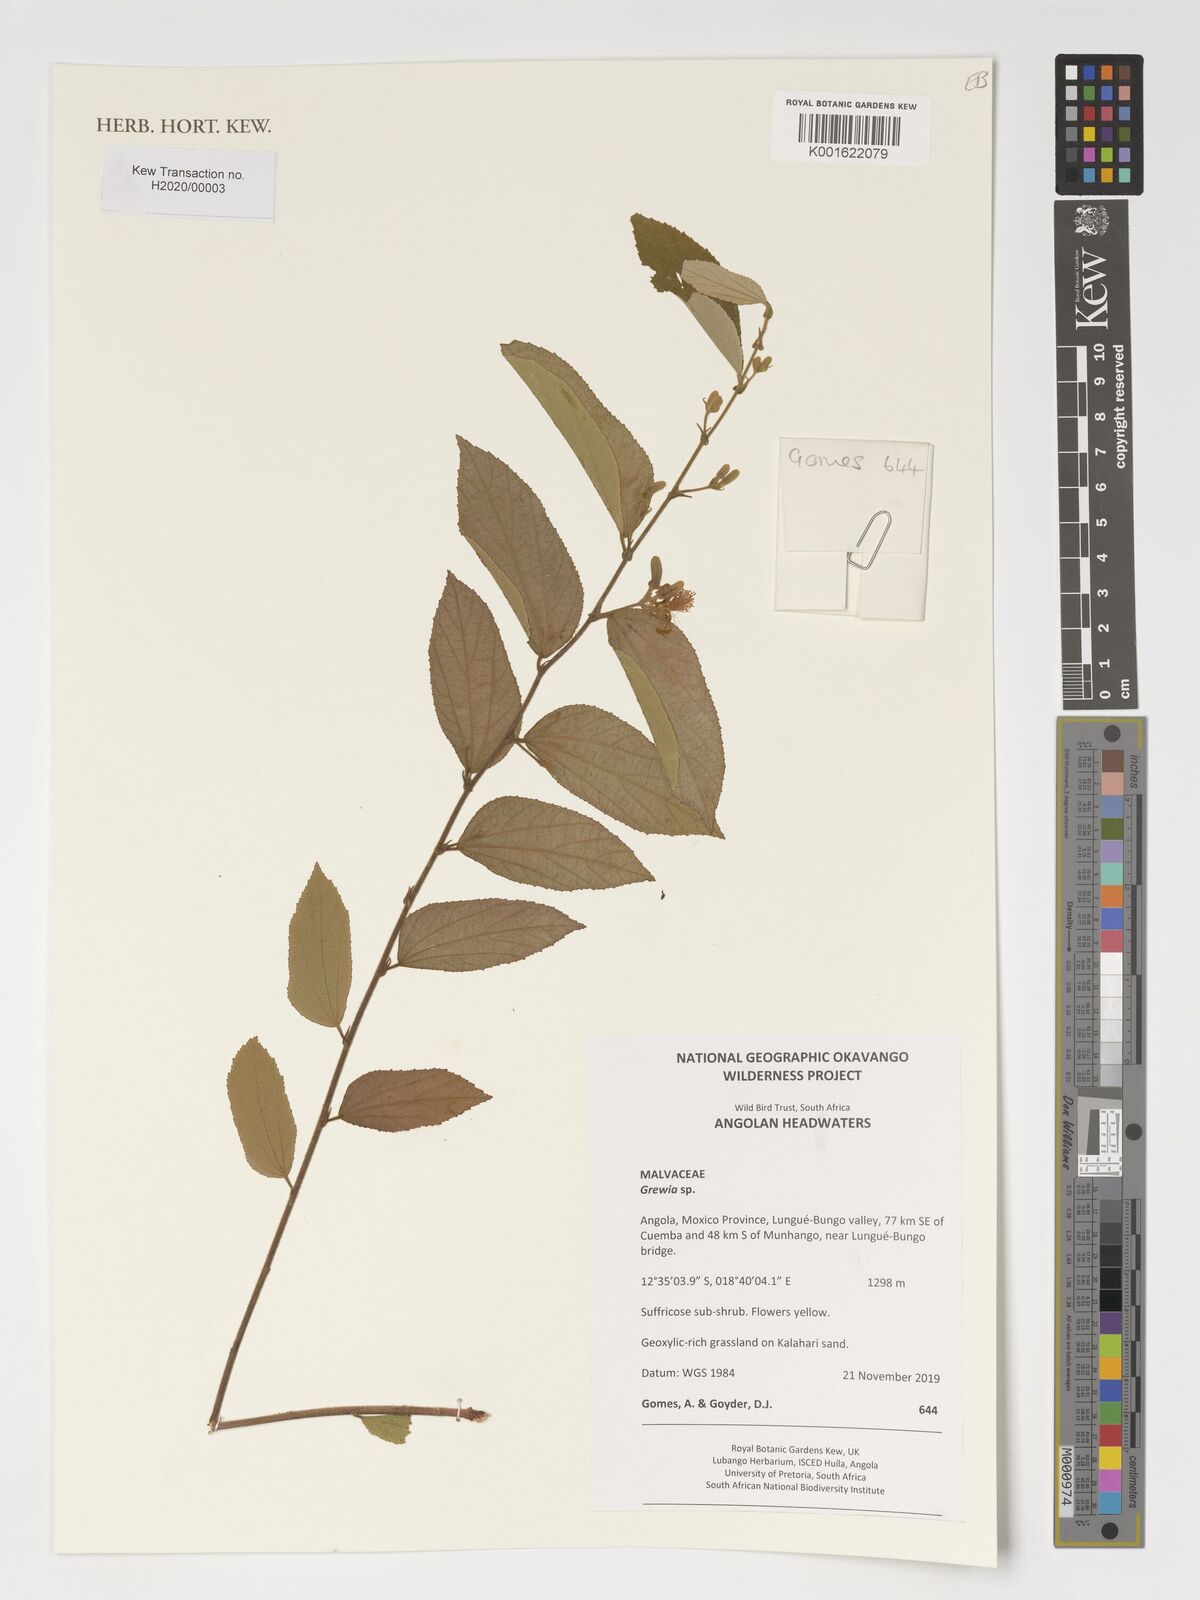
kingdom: Plantae
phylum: Tracheophyta
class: Magnoliopsida
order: Malvales
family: Malvaceae
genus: Grewia
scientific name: Grewia
